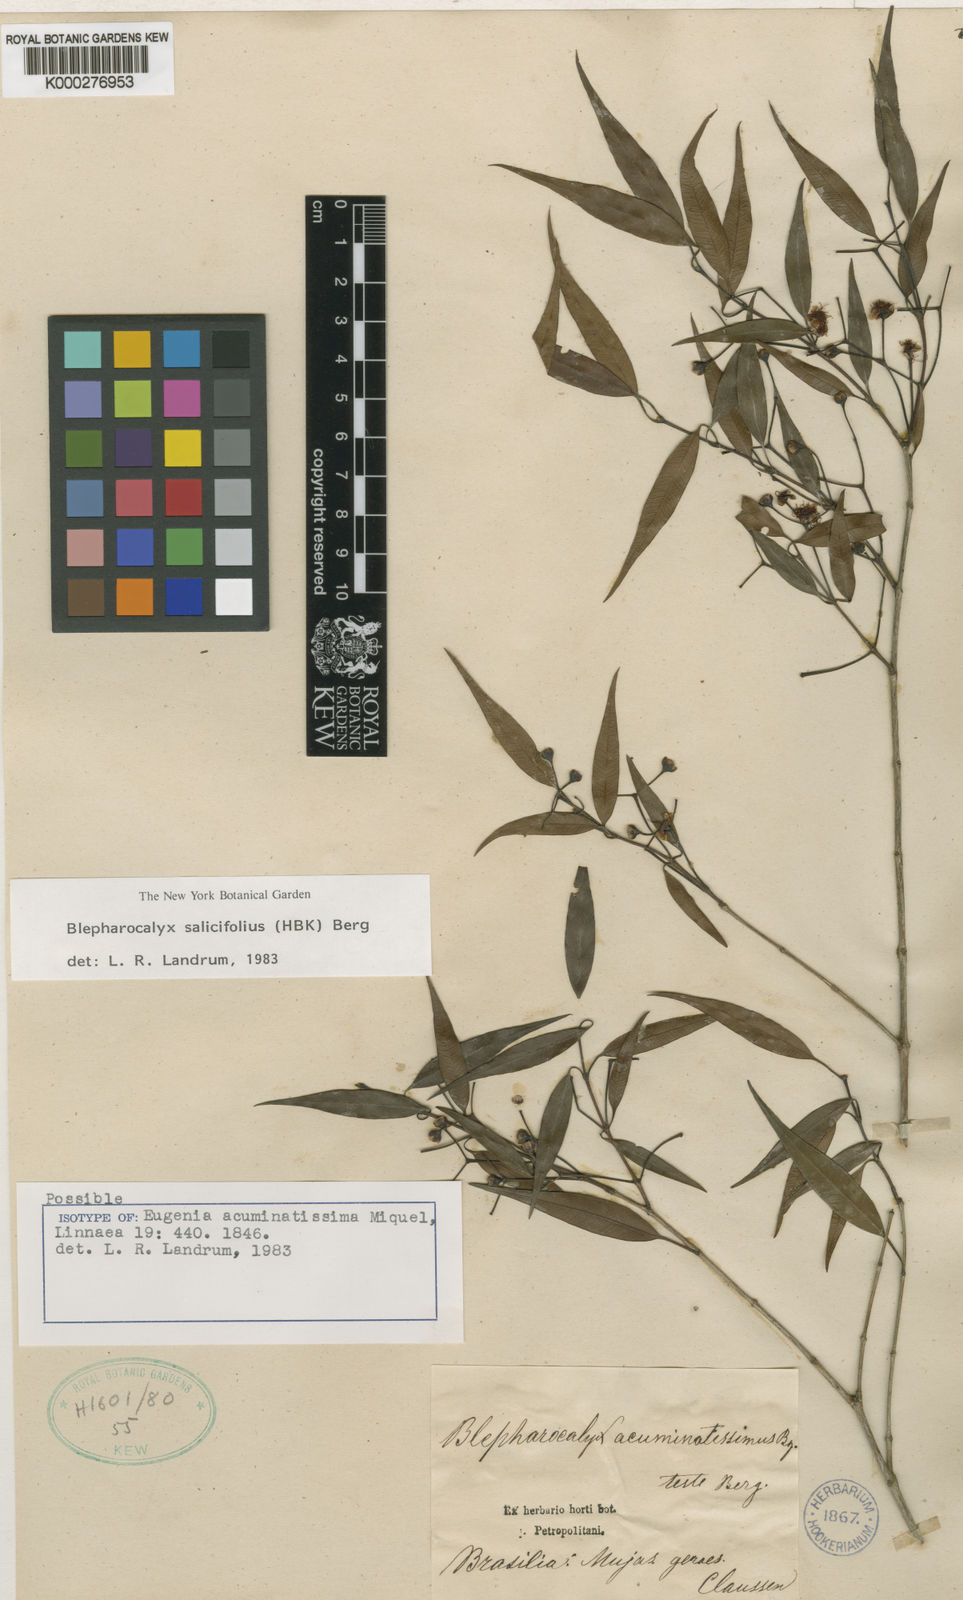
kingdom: Plantae
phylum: Tracheophyta
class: Magnoliopsida
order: Myrtales
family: Myrtaceae
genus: Blepharocalyx
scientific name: Blepharocalyx salicifolius
